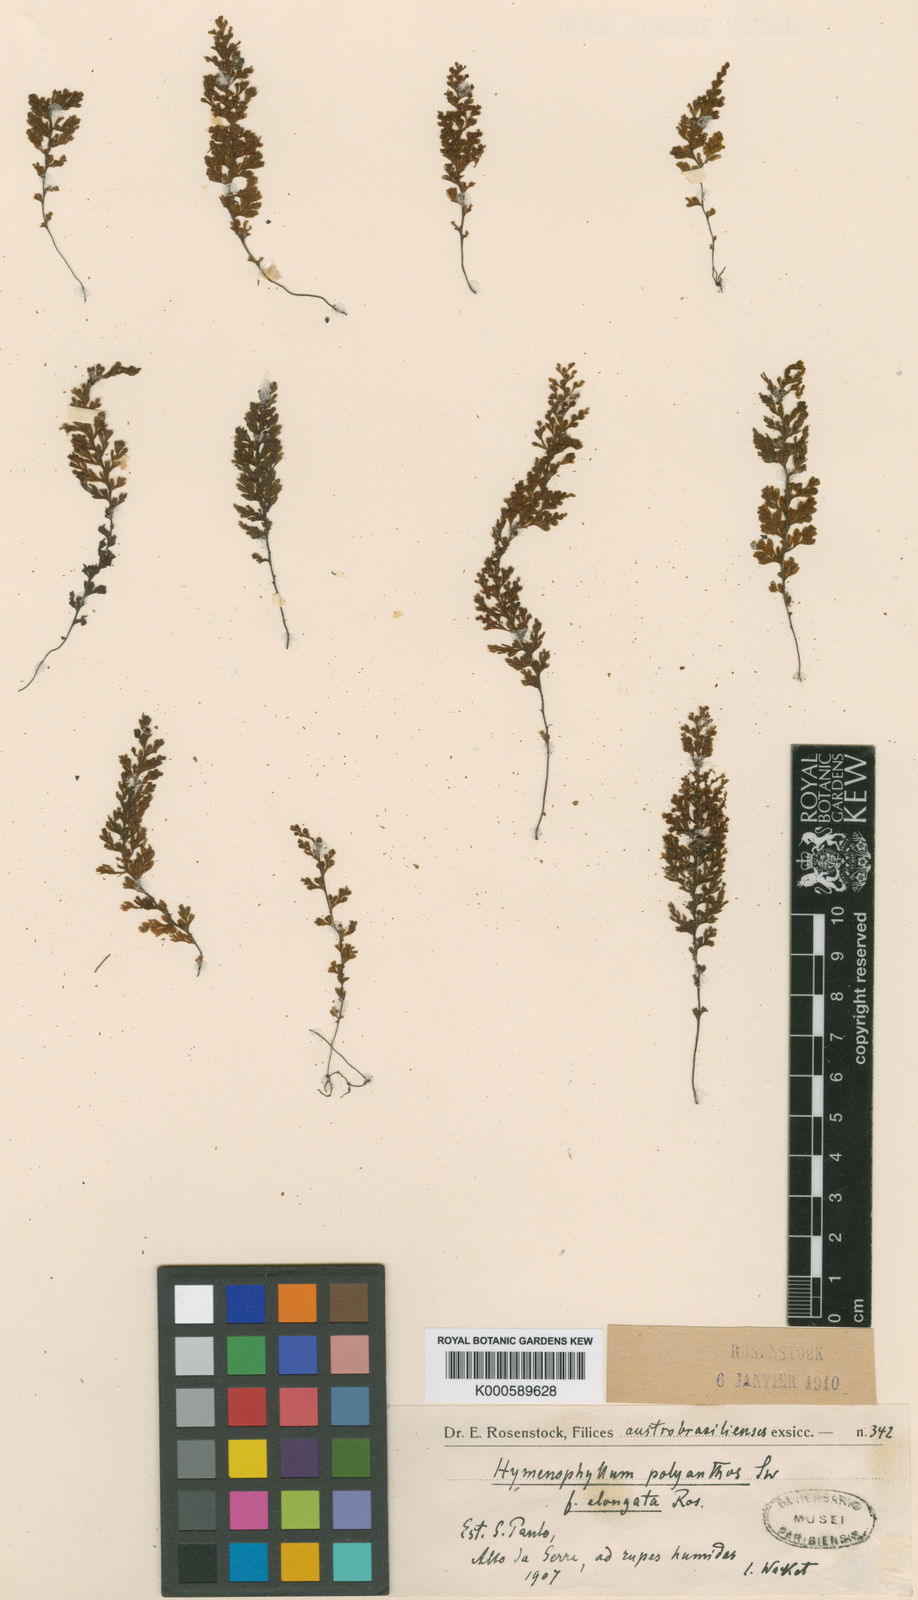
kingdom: Plantae
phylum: Tracheophyta
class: Polypodiopsida
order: Hymenophyllales
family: Hymenophyllaceae
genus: Hymenophyllum
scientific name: Hymenophyllum polyanthos
